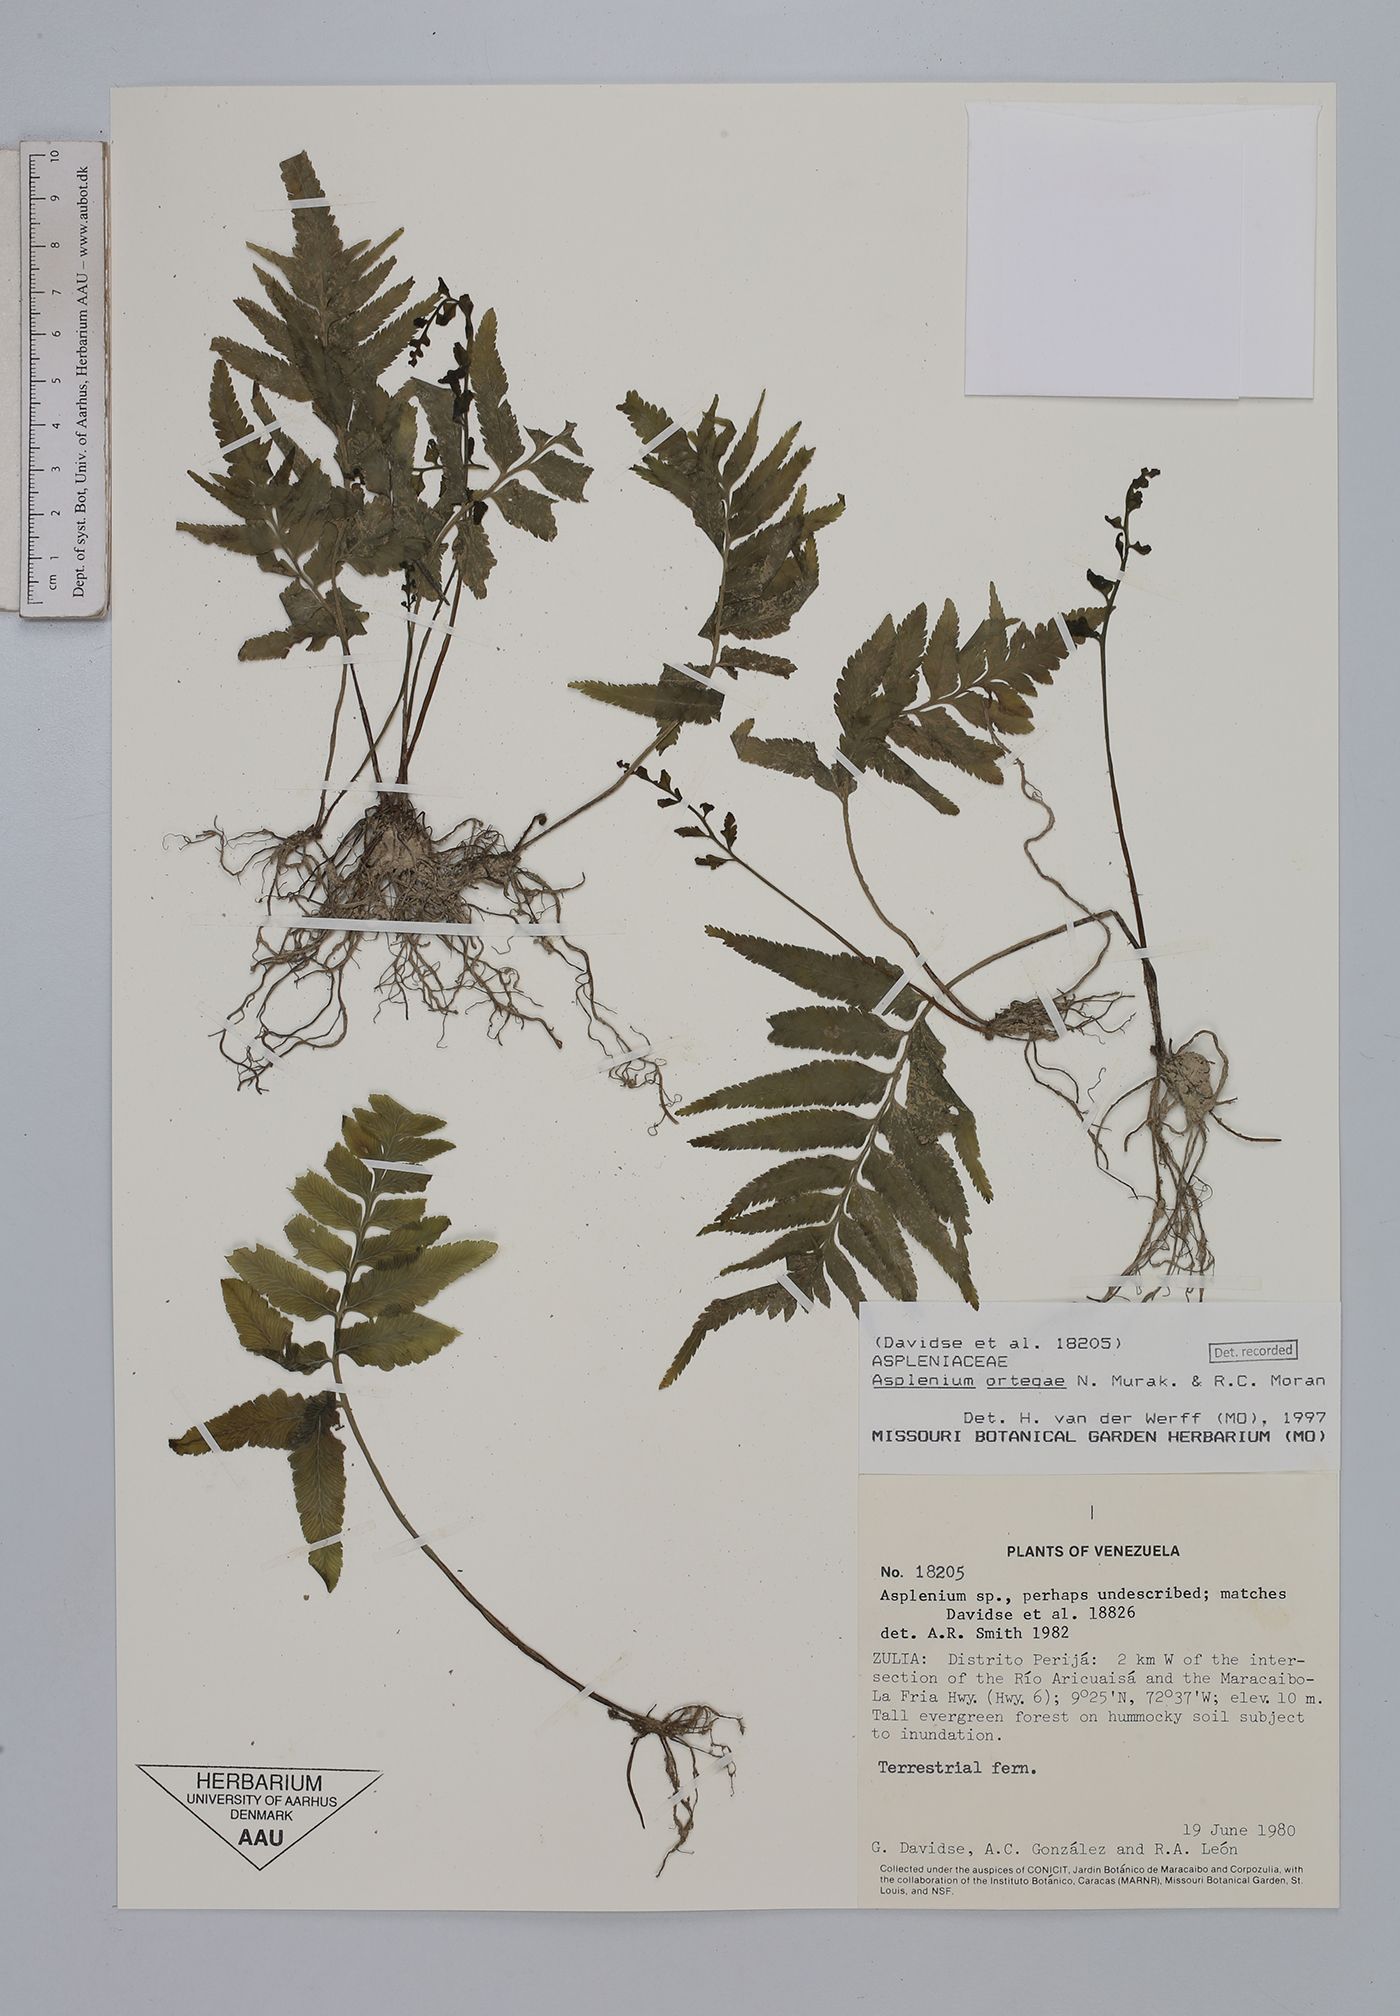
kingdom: Plantae
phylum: Tracheophyta
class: Polypodiopsida
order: Polypodiales
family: Aspleniaceae
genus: Hymenasplenium
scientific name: Hymenasplenium ortegae
